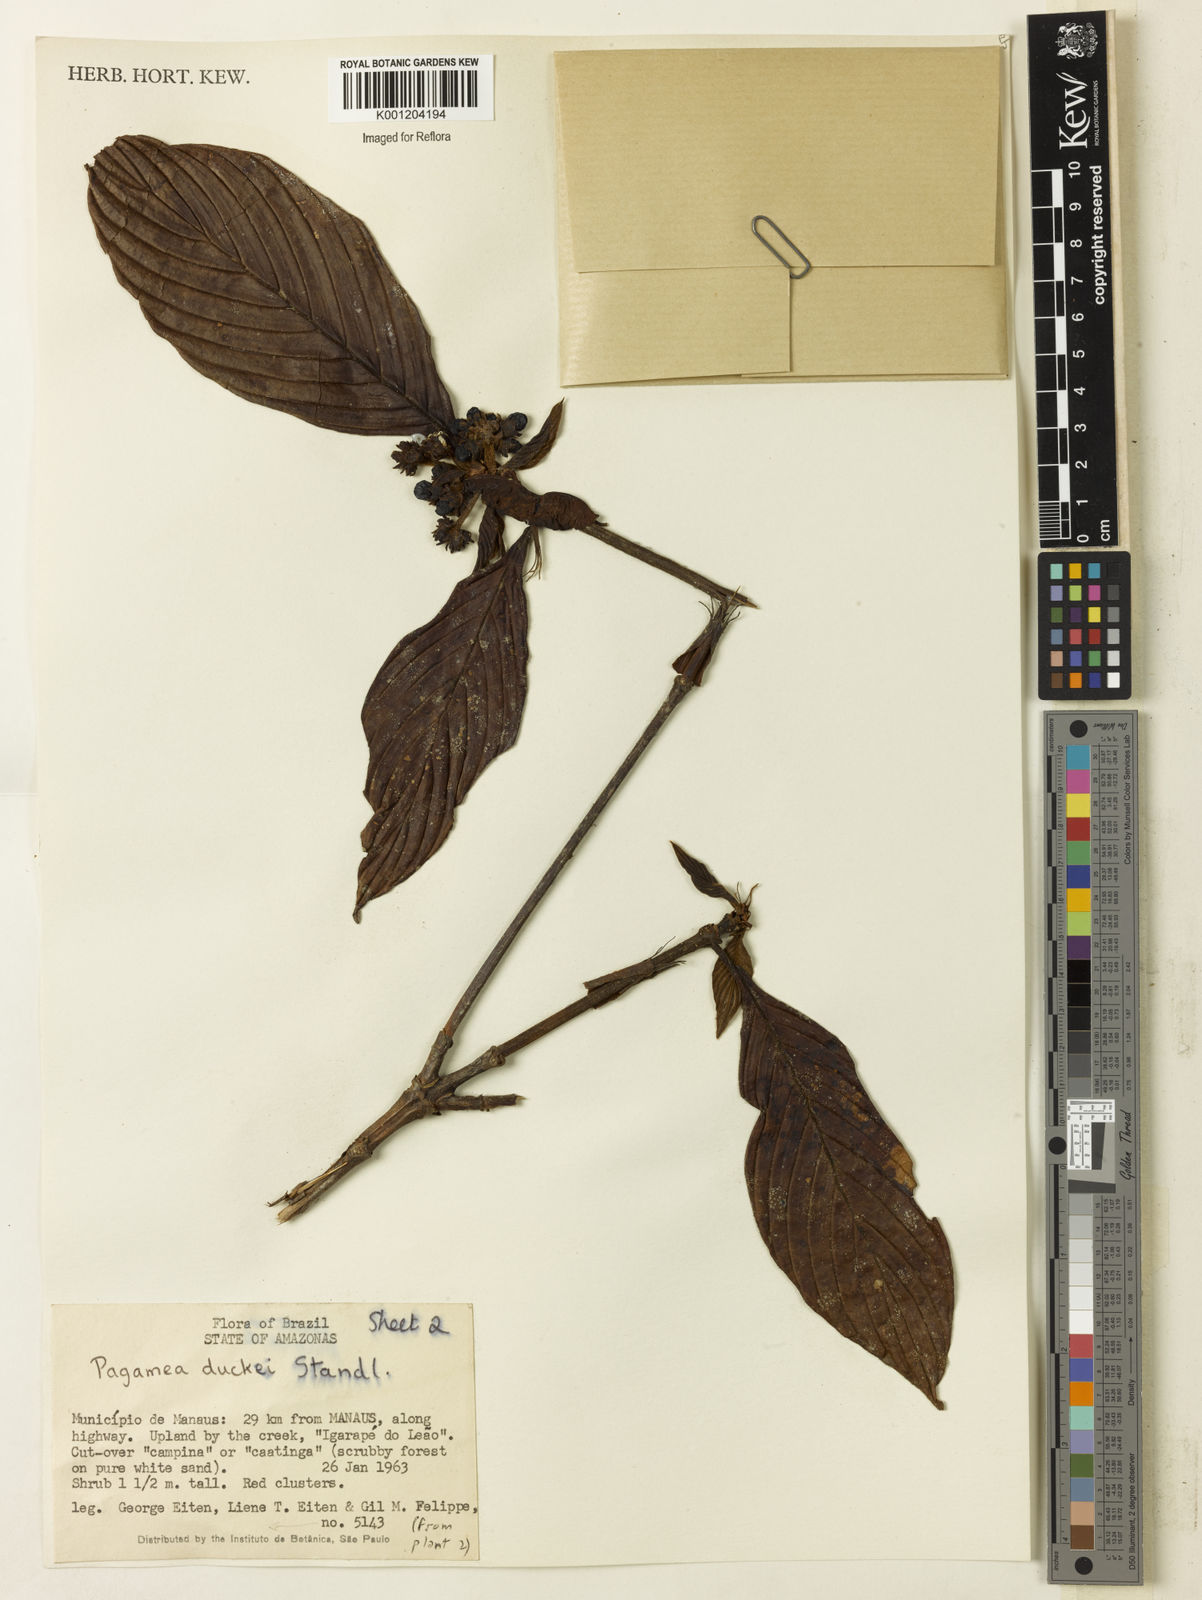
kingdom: Plantae
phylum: Tracheophyta
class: Magnoliopsida
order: Gentianales
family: Rubiaceae
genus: Pagamea
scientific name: Pagamea duckei
